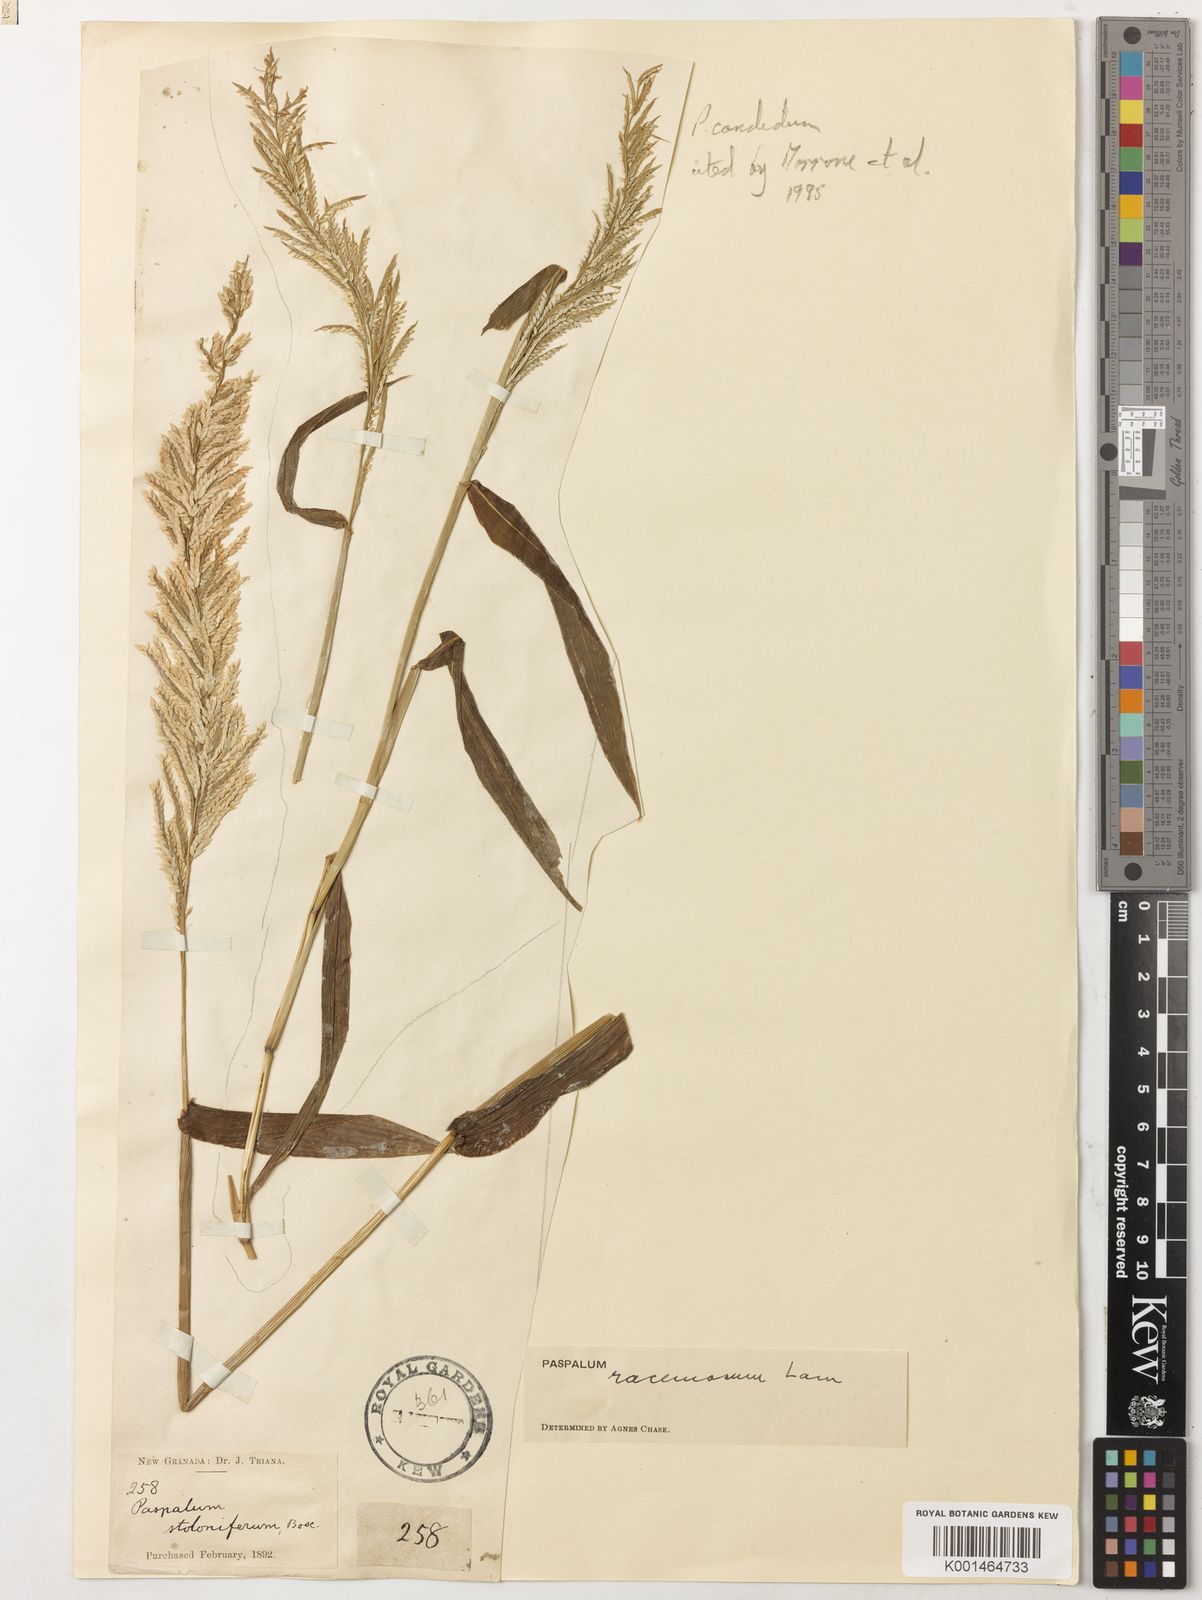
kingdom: Plantae
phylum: Tracheophyta
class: Liliopsida
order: Poales
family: Poaceae
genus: Paspalum
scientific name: Paspalum racemosum
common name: Peruvian paspalum
